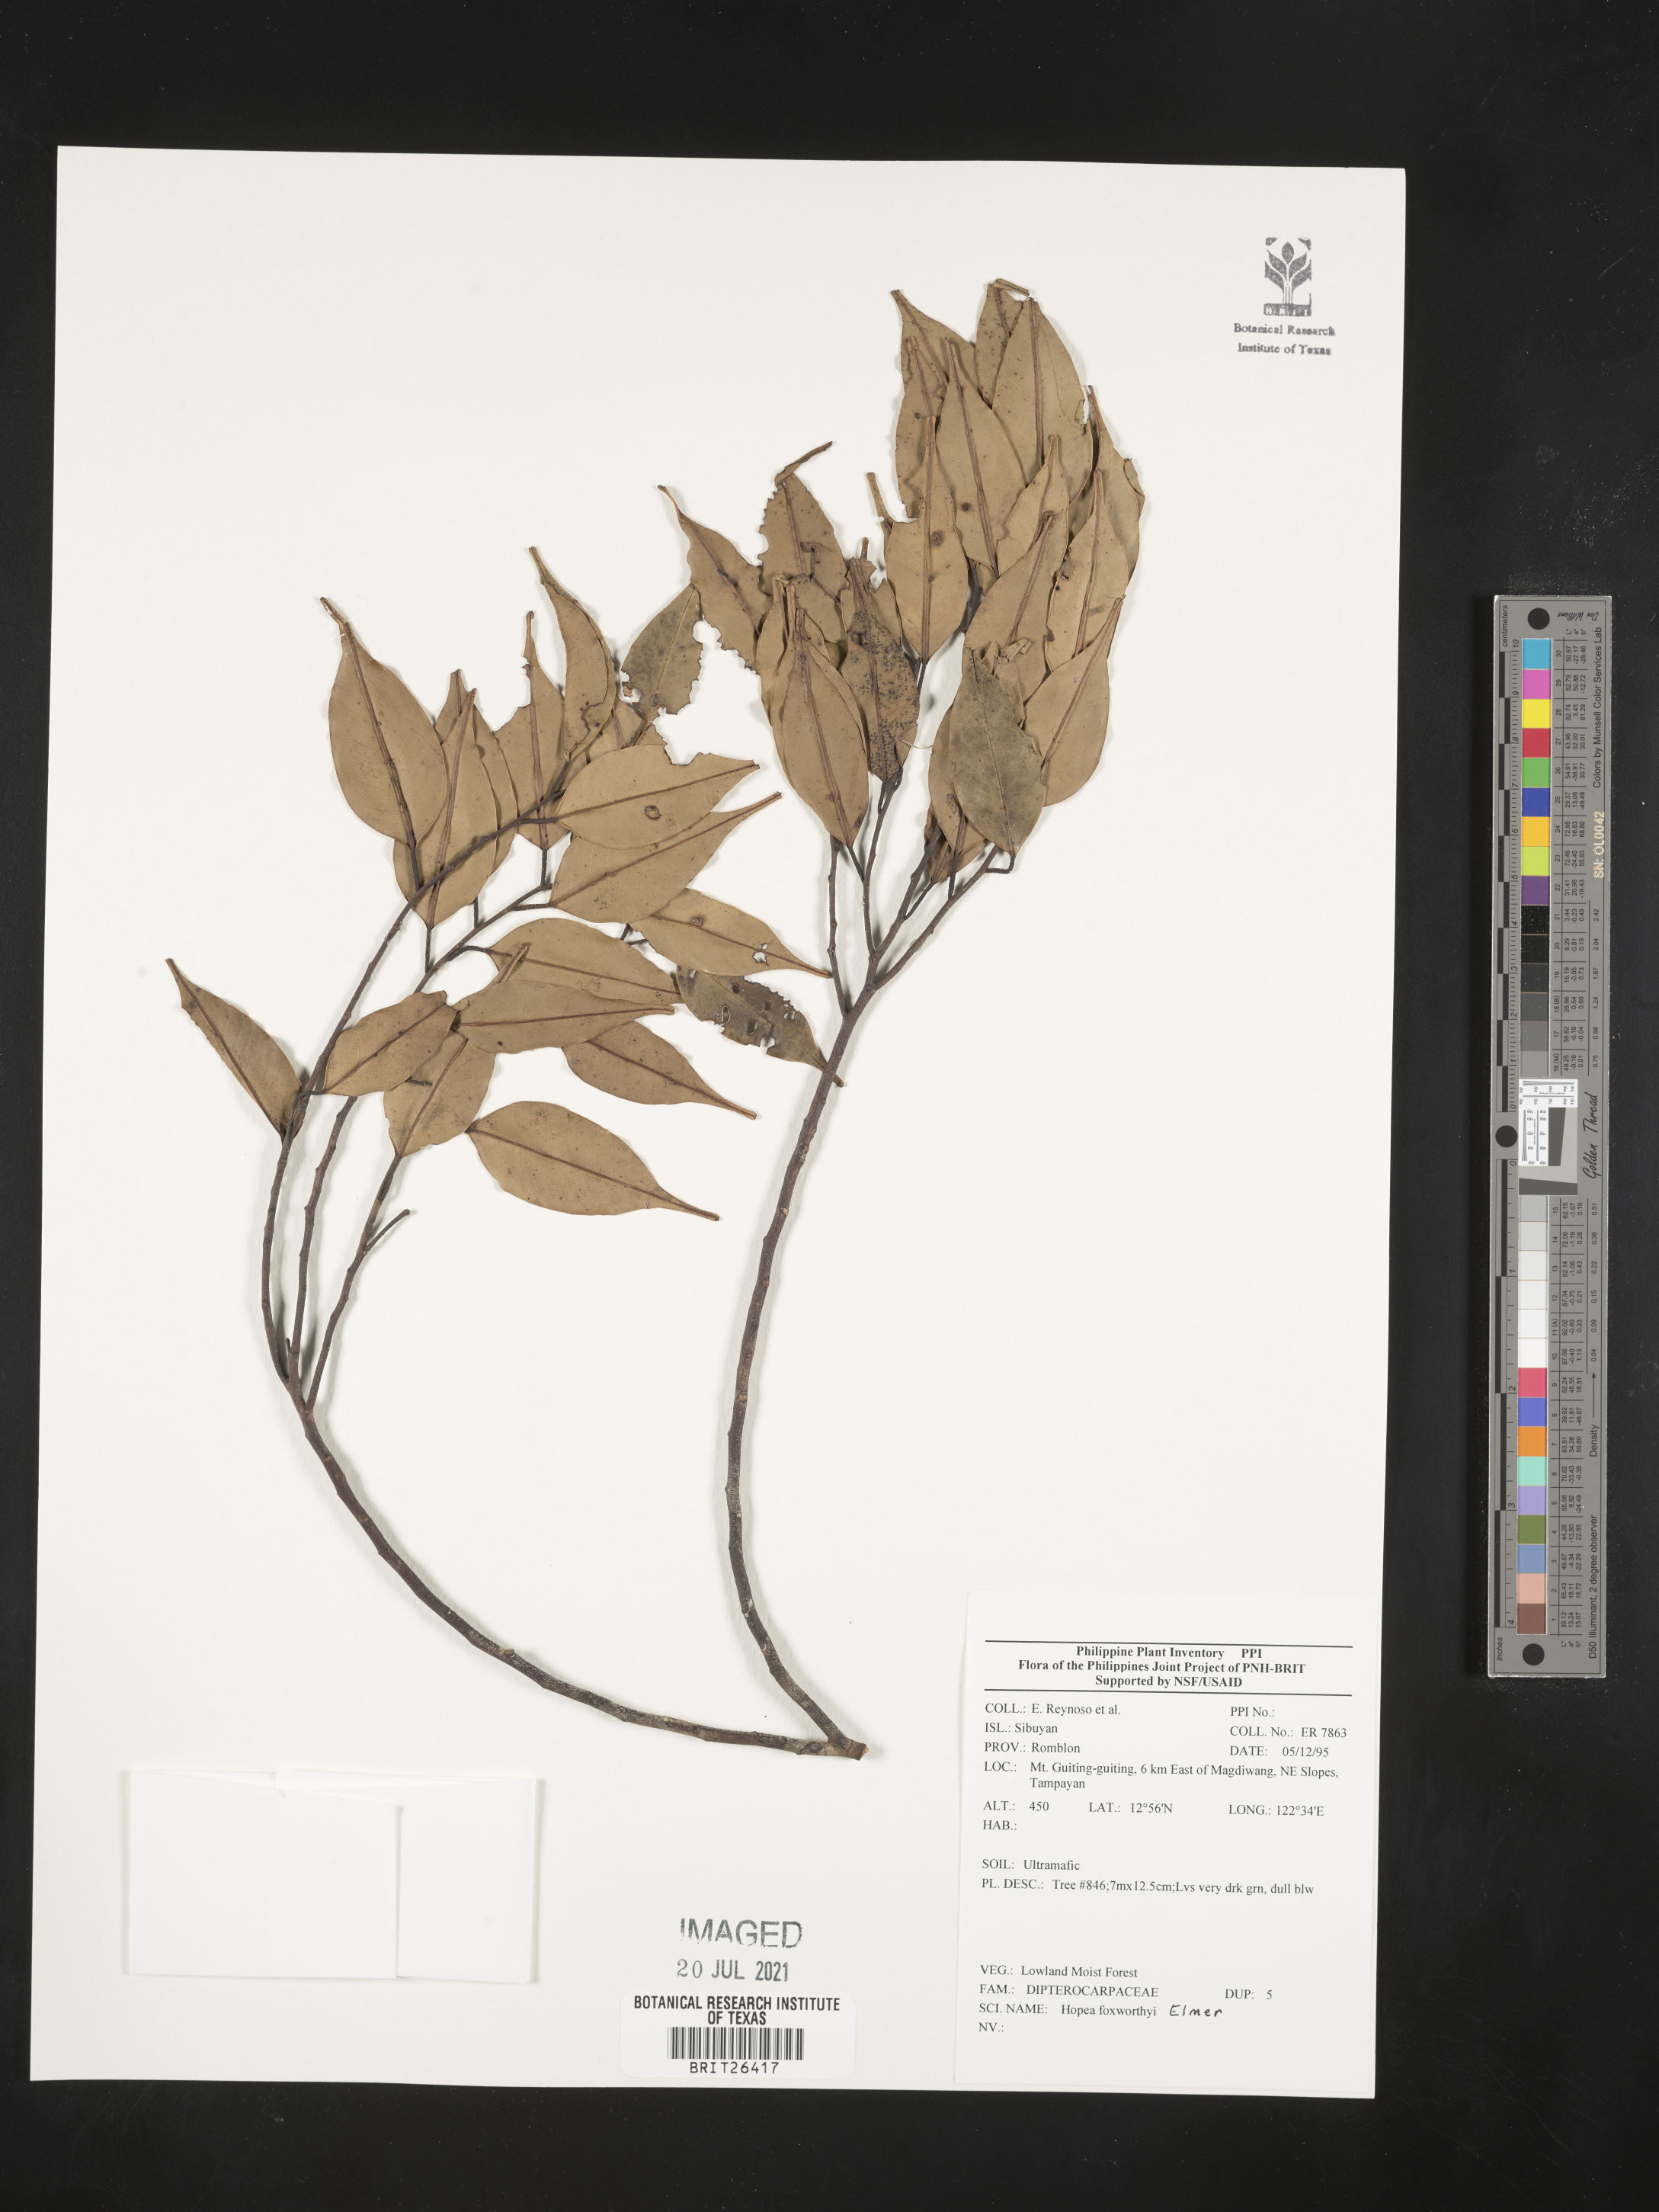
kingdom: Plantae
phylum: Tracheophyta
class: Magnoliopsida
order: Malvales
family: Dipterocarpaceae
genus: Hopea
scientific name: Hopea foxworthyi
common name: Dalingdingan
